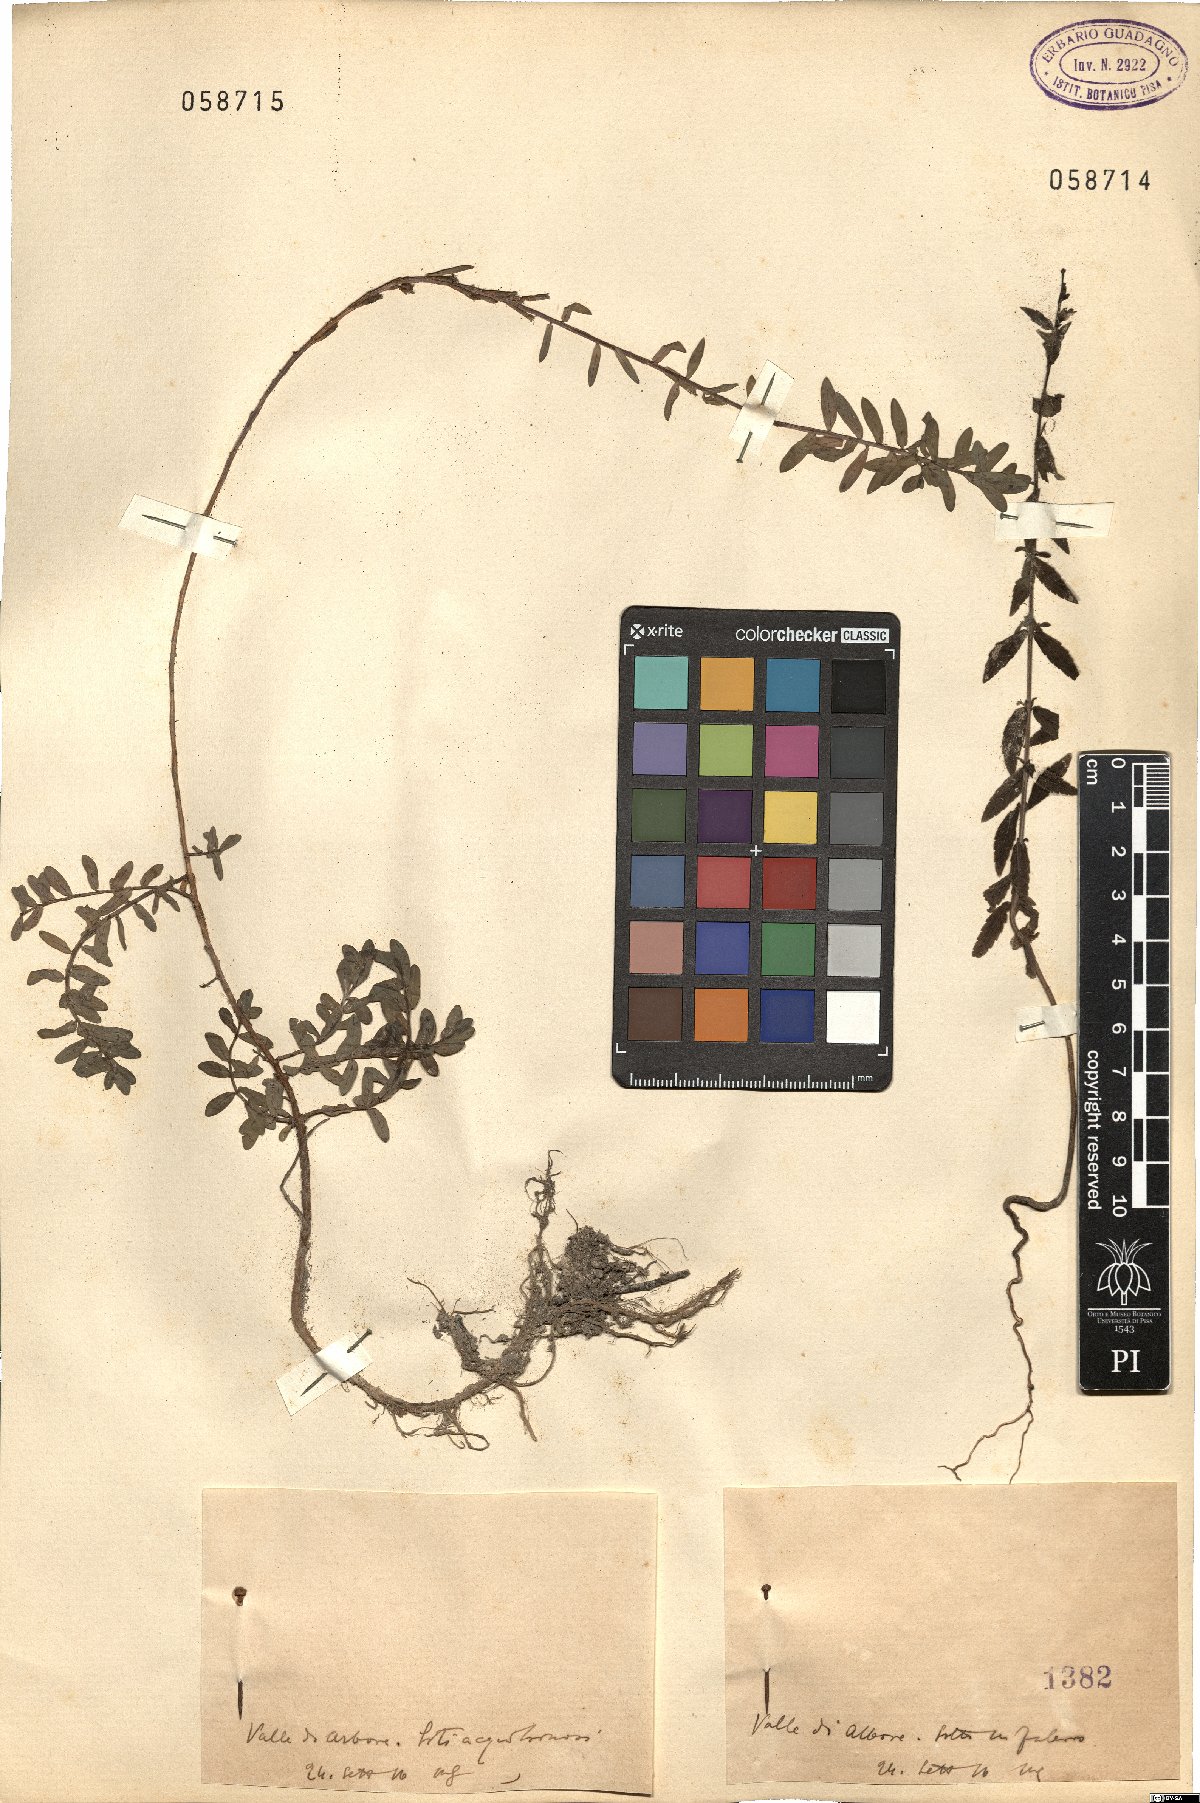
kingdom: Plantae
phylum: Tracheophyta
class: Magnoliopsida
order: Lamiales
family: Orobanchaceae
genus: Bartsia
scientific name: Bartsia
